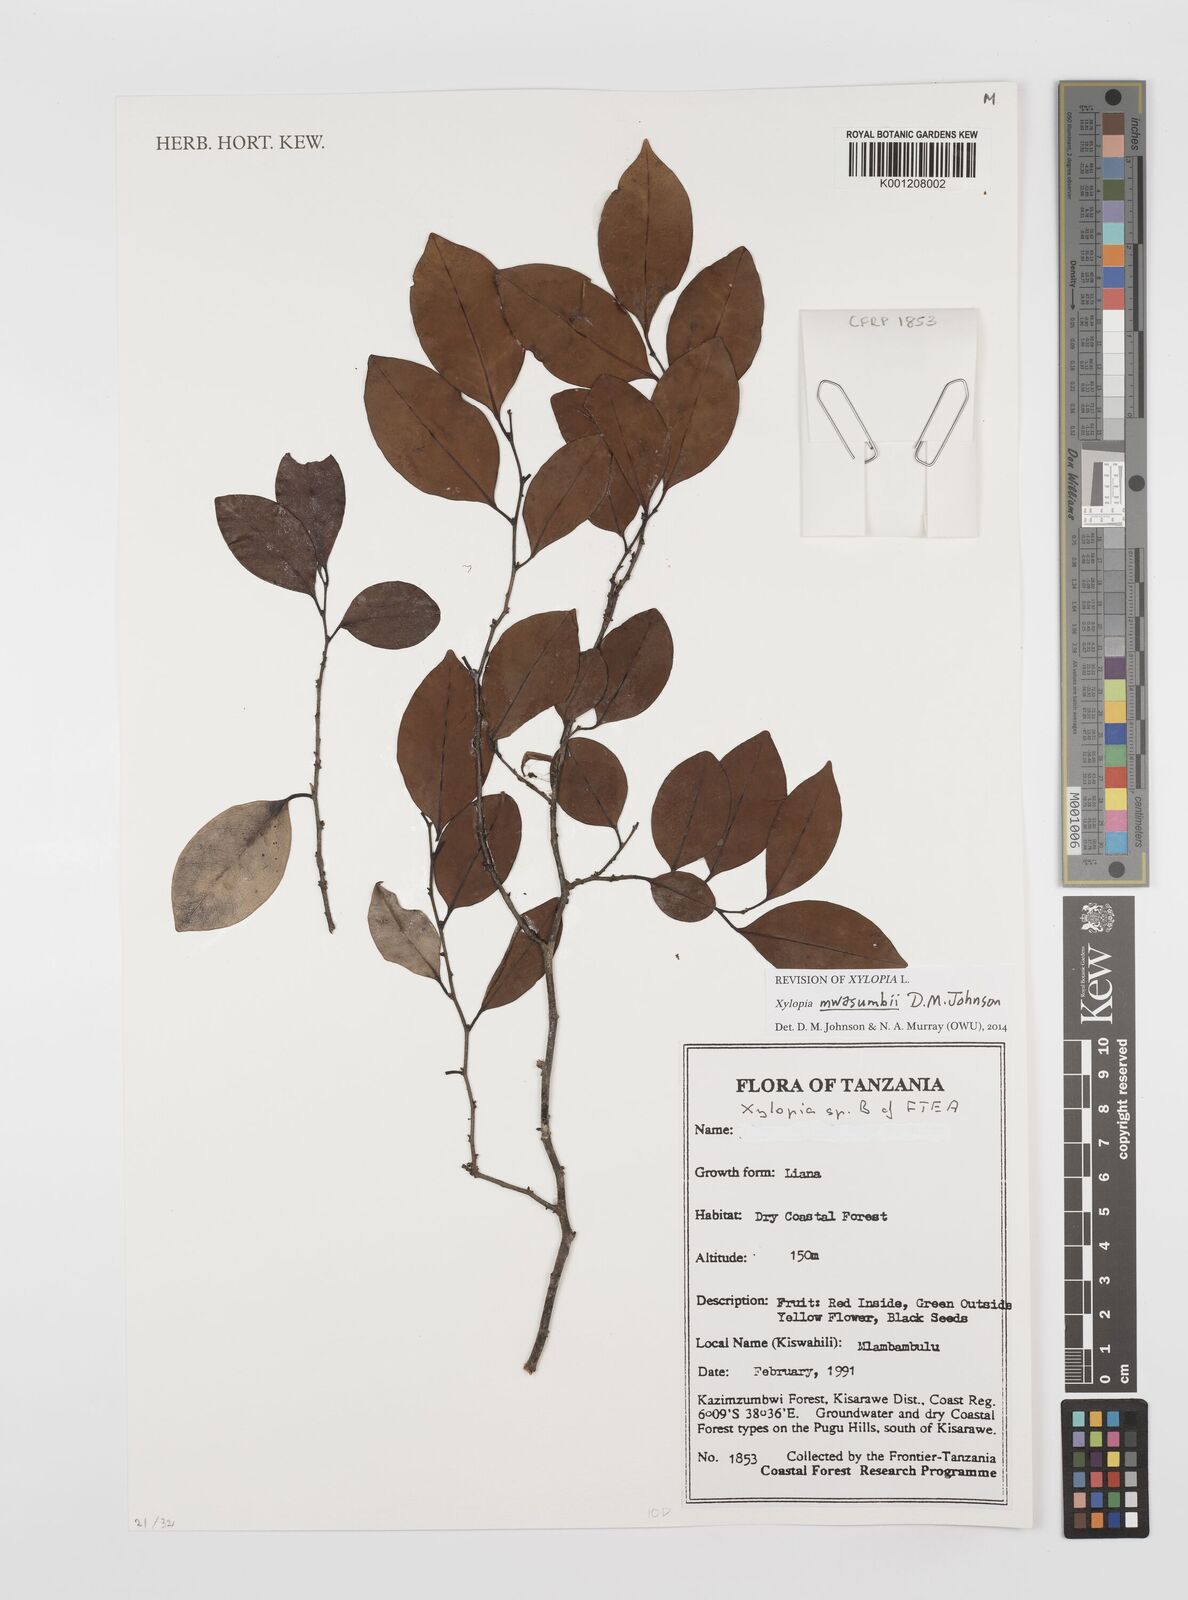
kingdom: Plantae
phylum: Tracheophyta
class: Magnoliopsida
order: Magnoliales
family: Annonaceae
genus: Xylopia
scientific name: Xylopia mwasumbii
